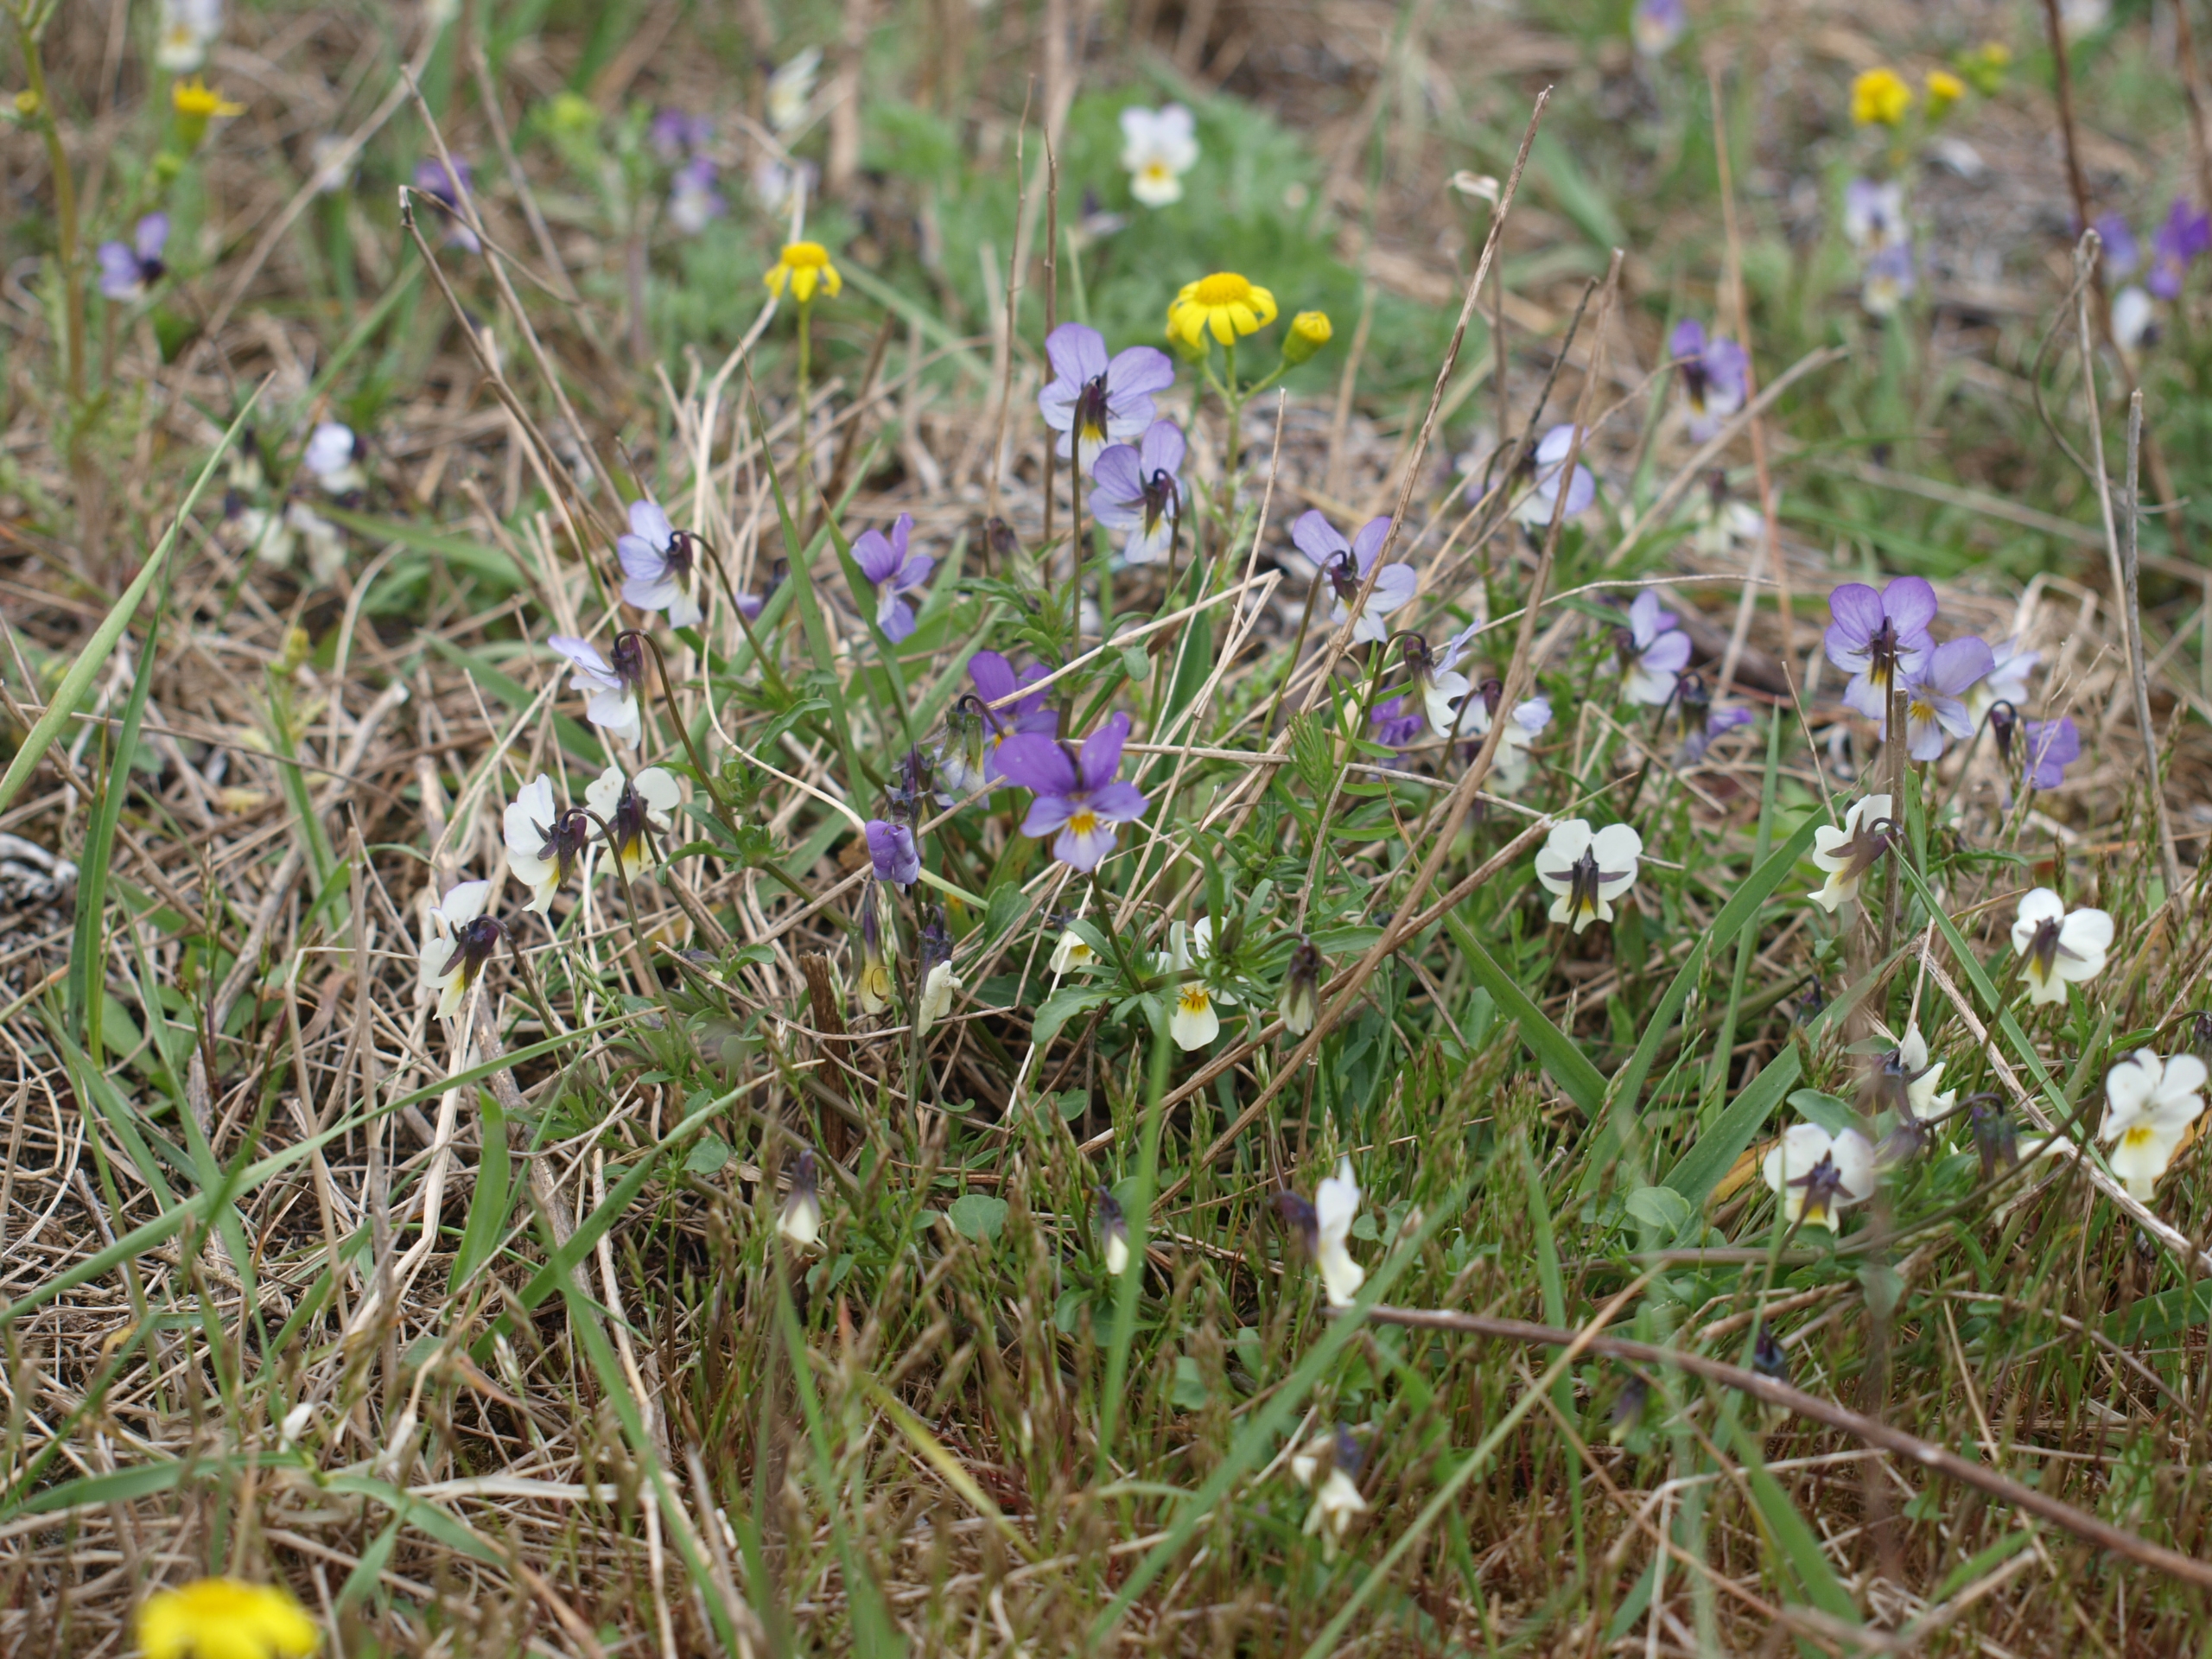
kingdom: Plantae
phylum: Tracheophyta
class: Magnoliopsida
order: Malpighiales
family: Violaceae
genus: Viola
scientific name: Viola tricolor
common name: Stedmoderblomst
